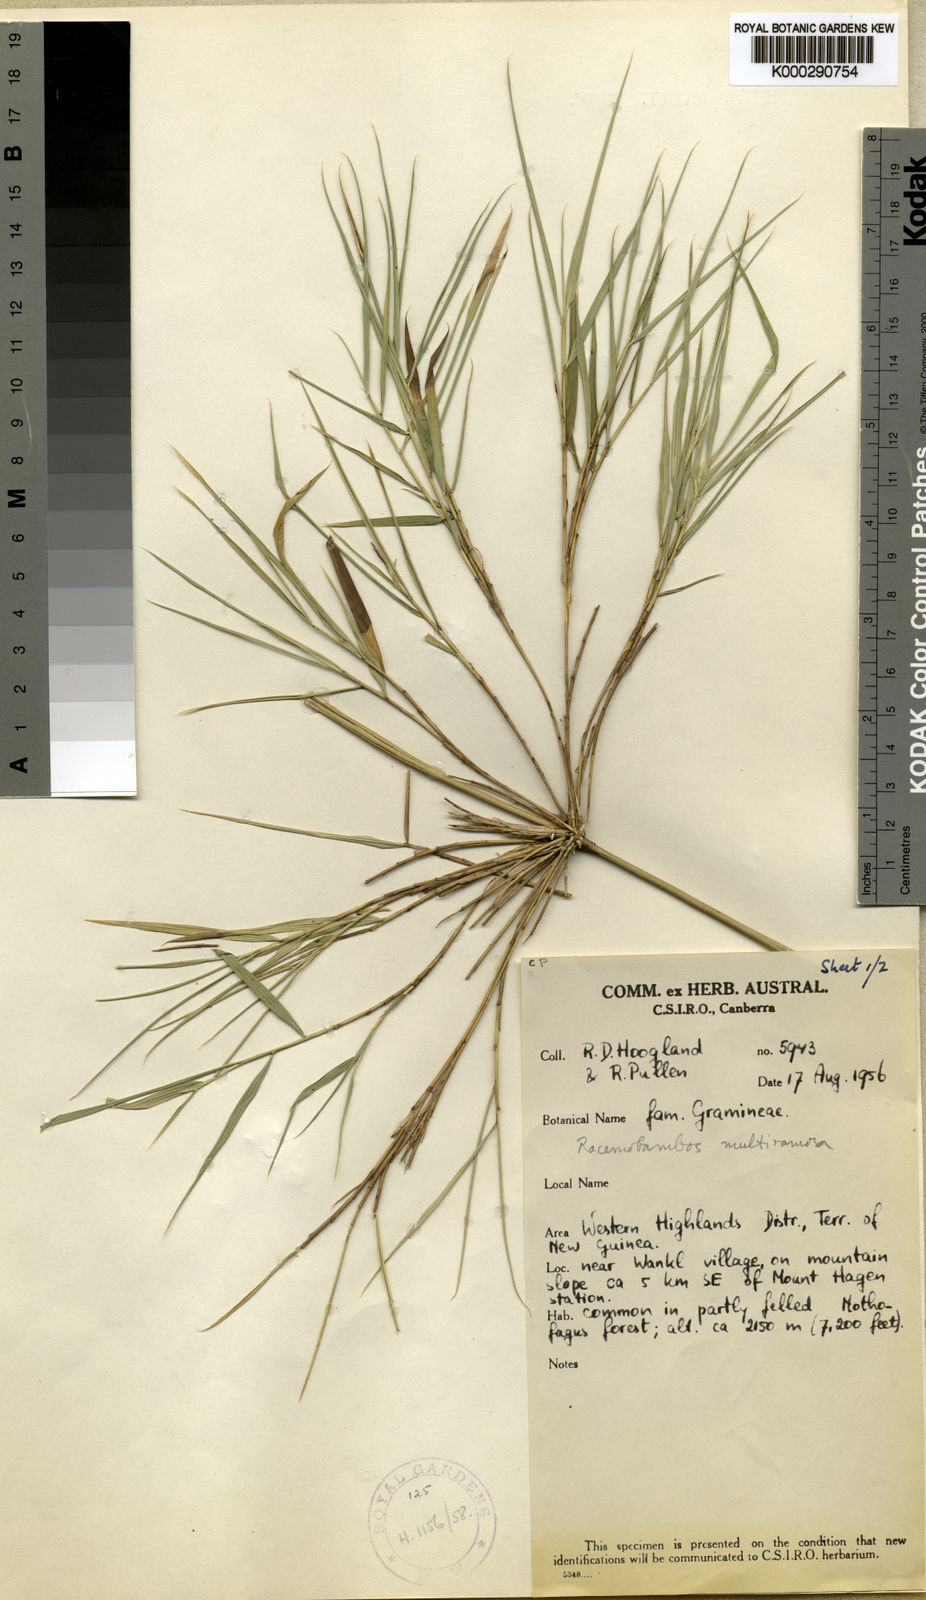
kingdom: Plantae
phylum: Tracheophyta
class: Liliopsida
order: Poales
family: Poaceae
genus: Racemobambos
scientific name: Racemobambos multiramosa
